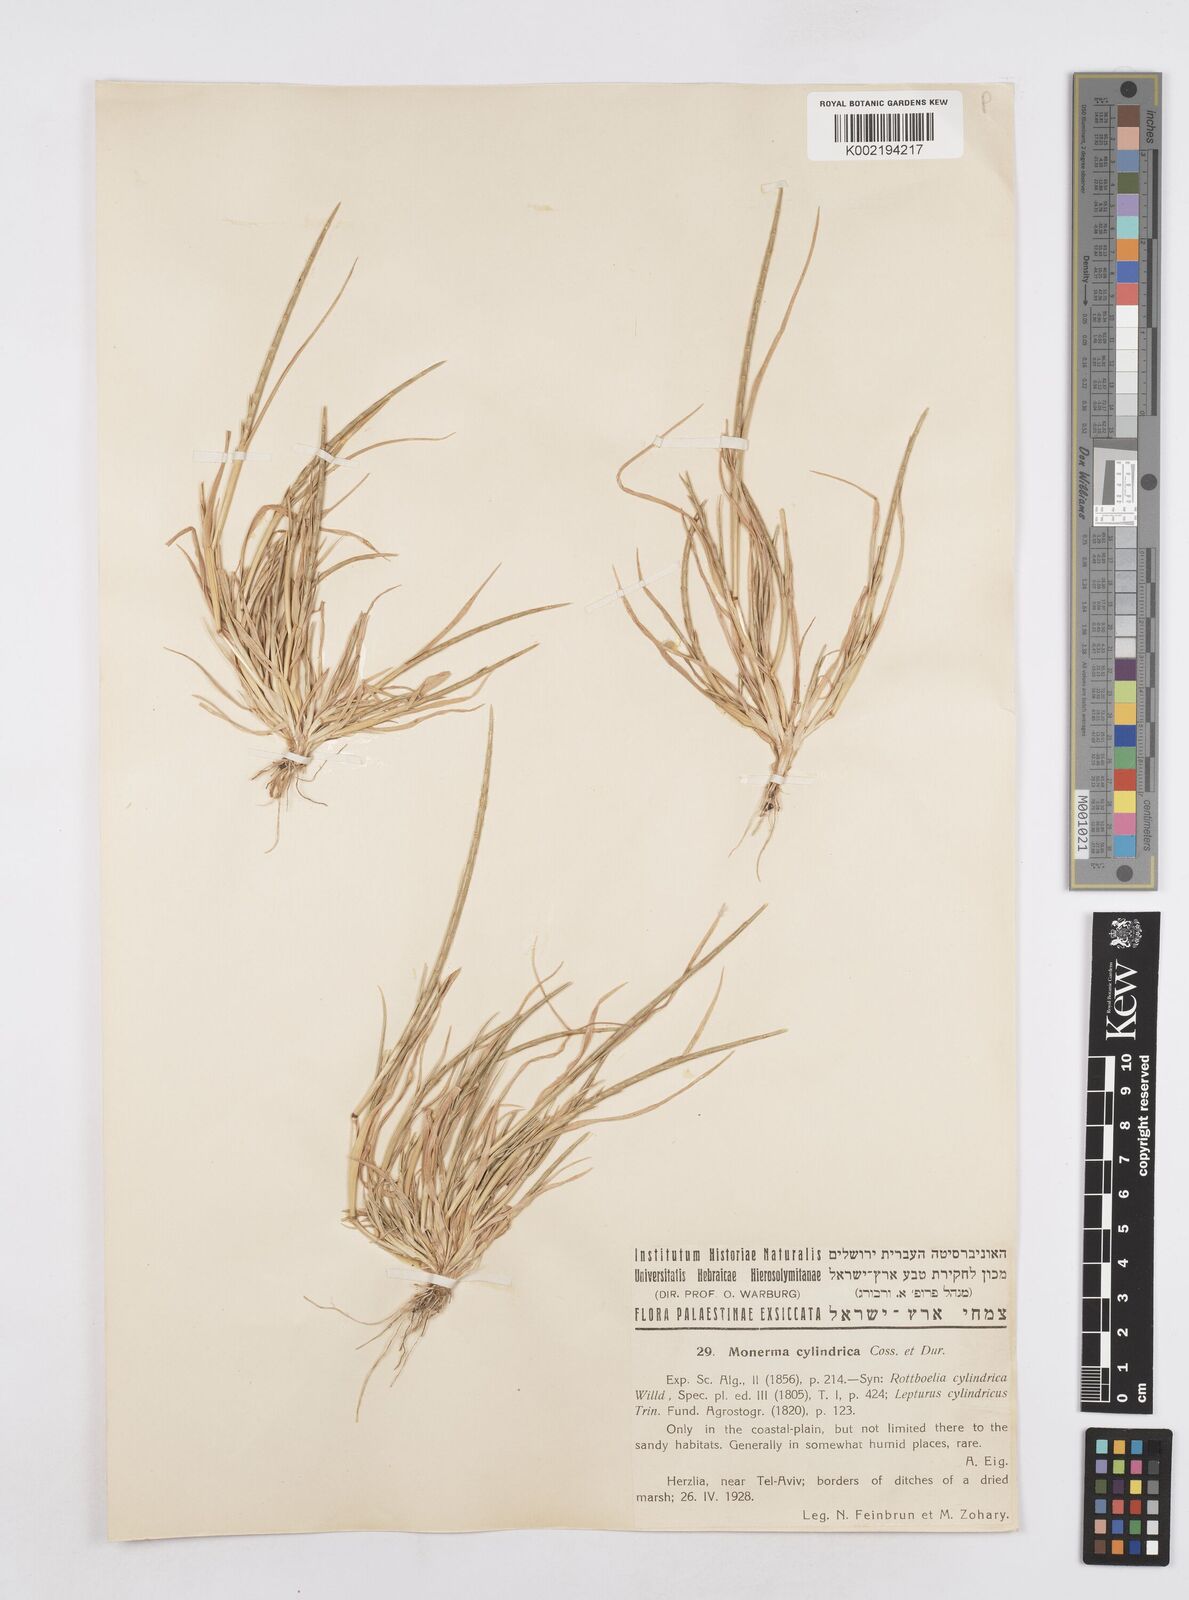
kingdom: Plantae
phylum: Tracheophyta
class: Liliopsida
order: Poales
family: Poaceae
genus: Parapholis
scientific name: Parapholis cylindrica
